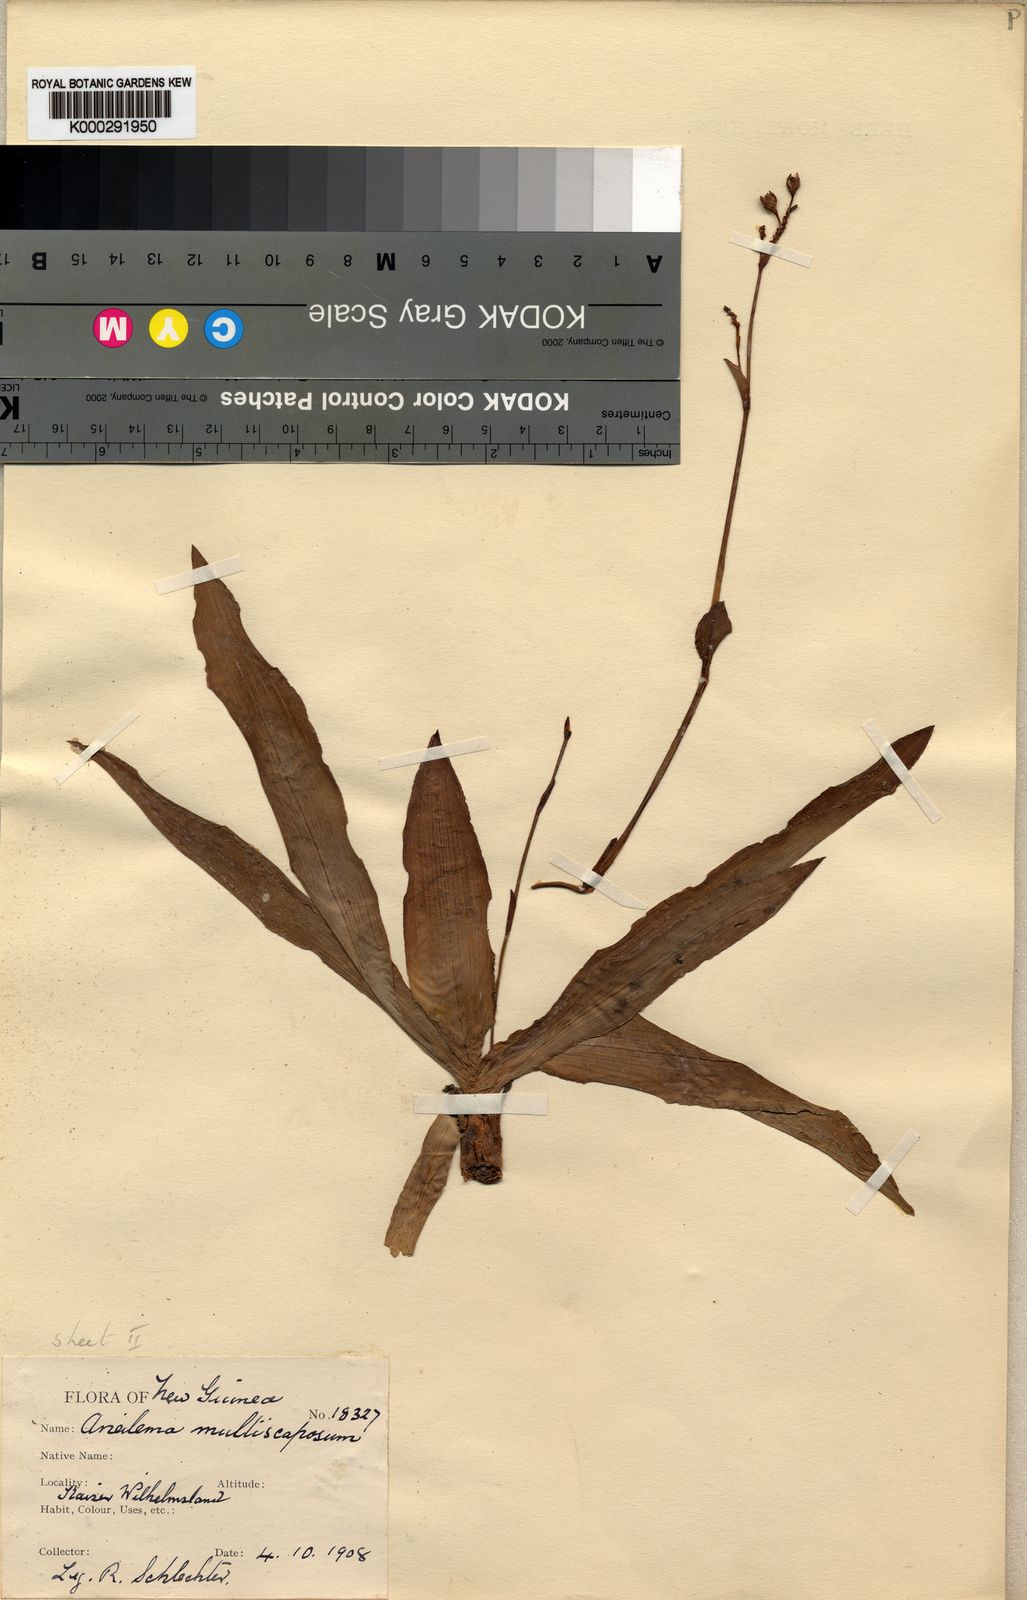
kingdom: Plantae
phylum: Tracheophyta
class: Liliopsida
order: Commelinales
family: Commelinaceae
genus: Murdannia
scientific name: Murdannia
